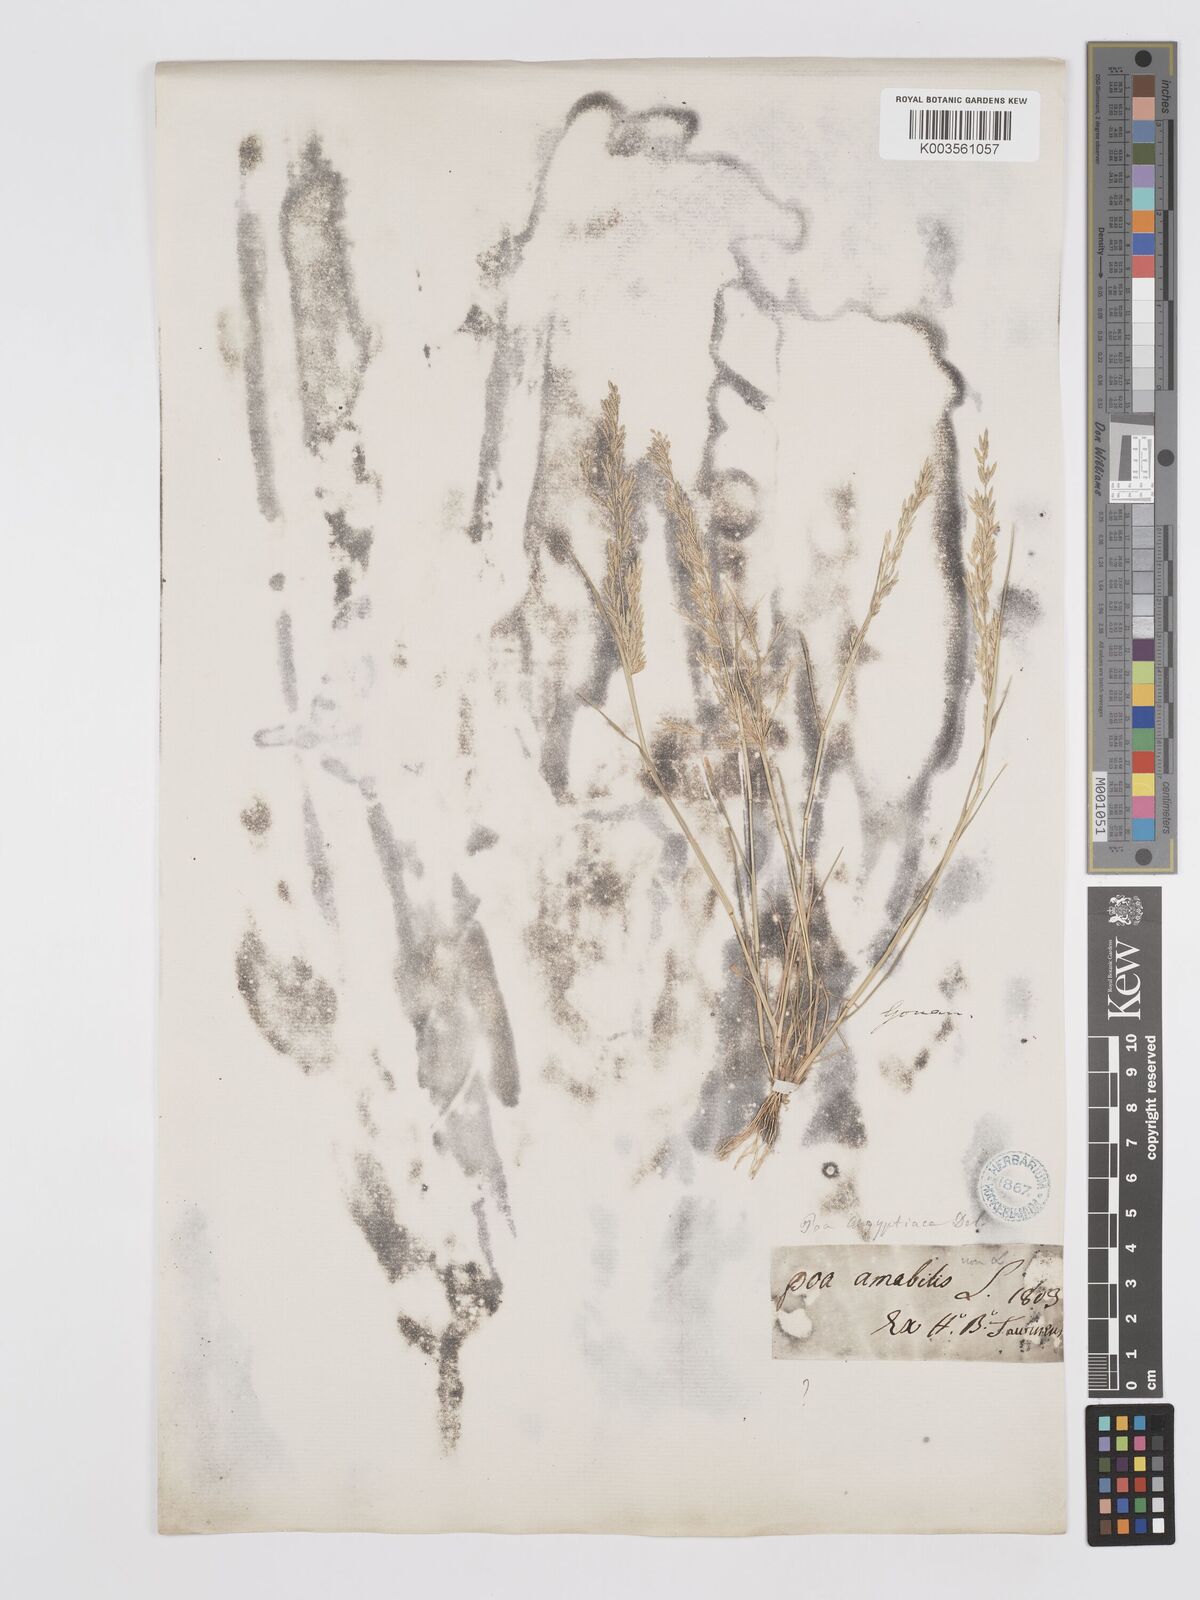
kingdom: Plantae
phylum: Tracheophyta
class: Liliopsida
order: Poales
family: Poaceae
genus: Eragrostis
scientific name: Eragrostis aegyptiaca
